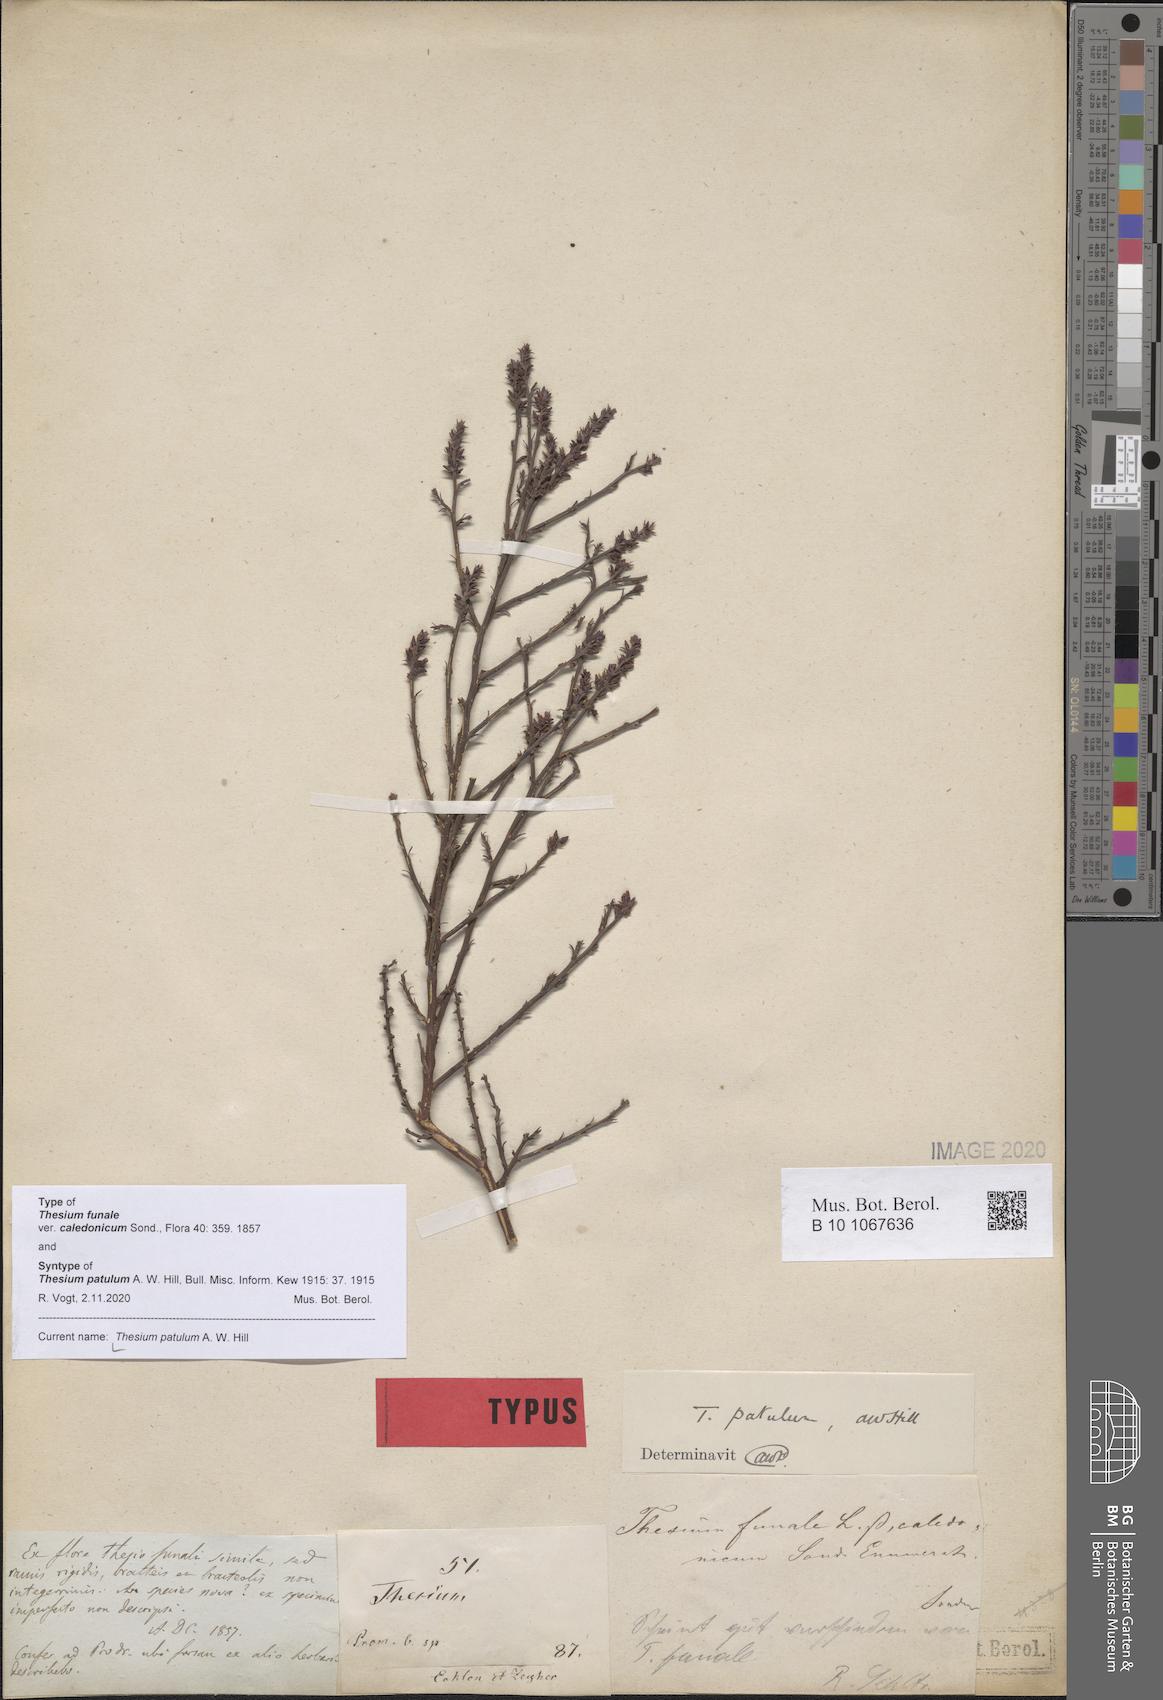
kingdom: Plantae
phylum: Tracheophyta
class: Magnoliopsida
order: Santalales
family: Thesiaceae
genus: Thesium
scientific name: Thesium patulum
